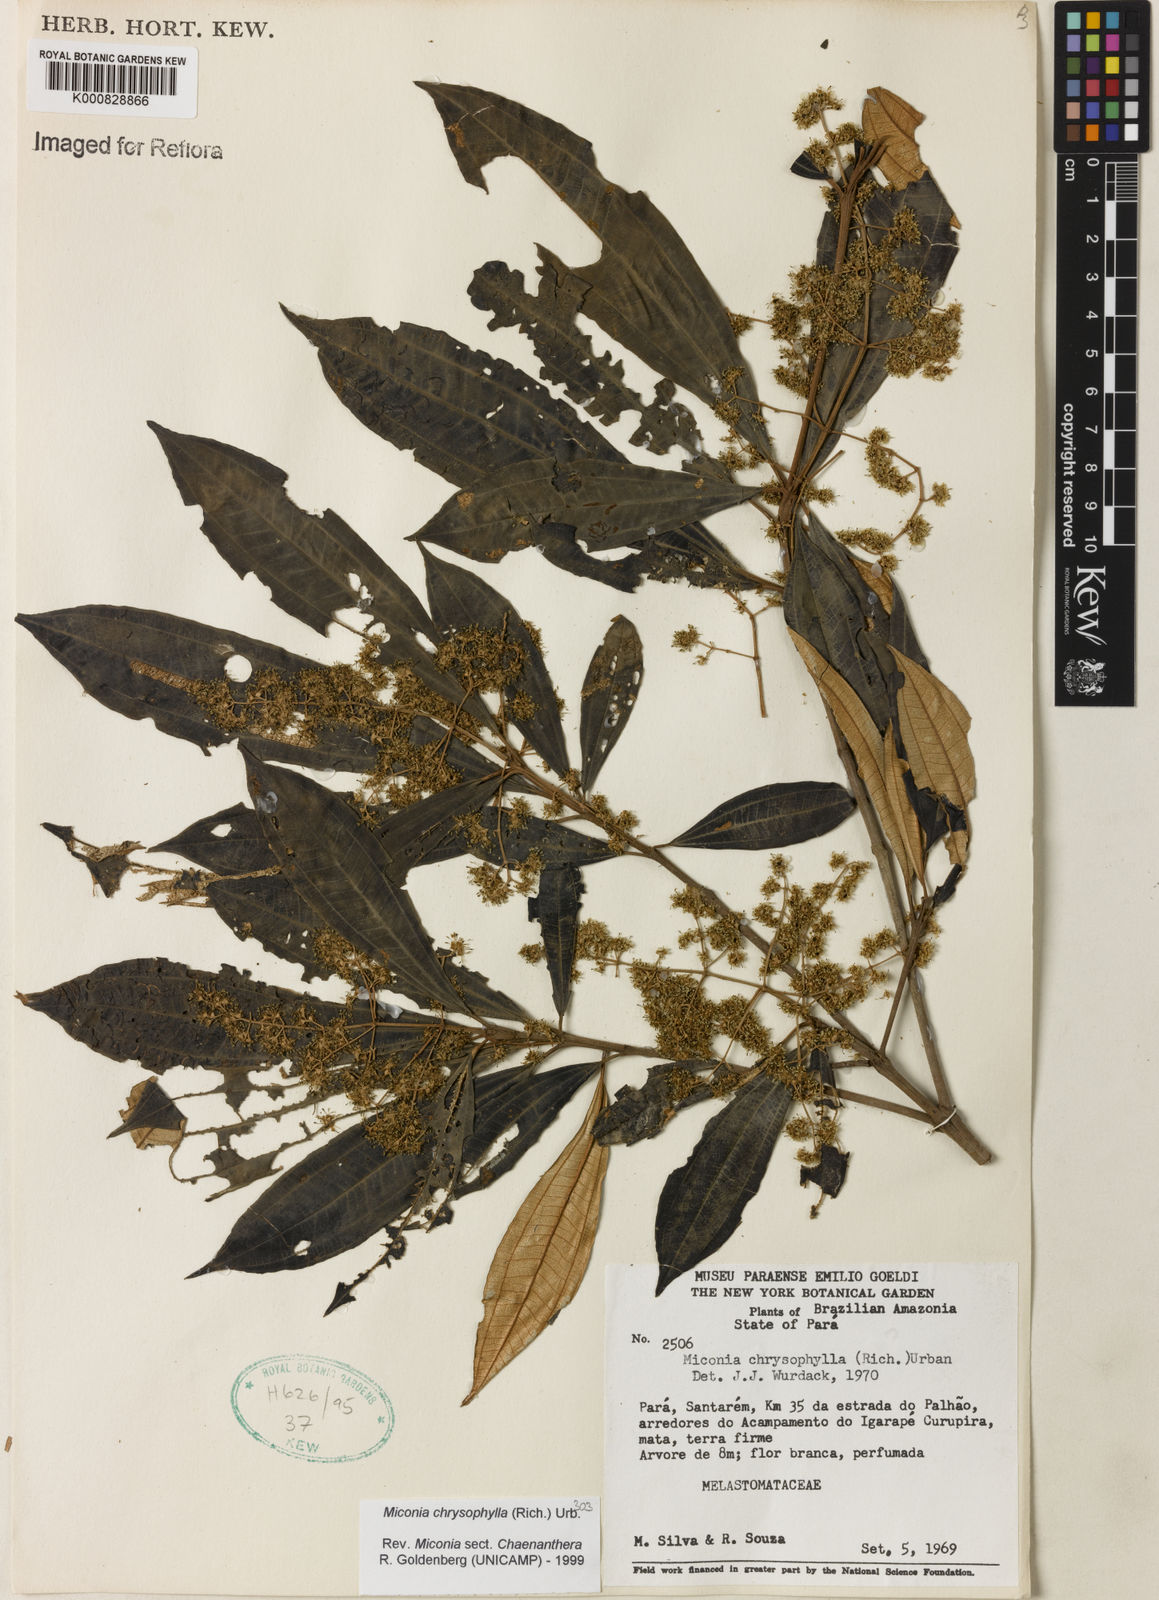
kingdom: Plantae
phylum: Tracheophyta
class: Magnoliopsida
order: Myrtales
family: Melastomataceae
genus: Miconia
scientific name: Miconia chrysophylla
